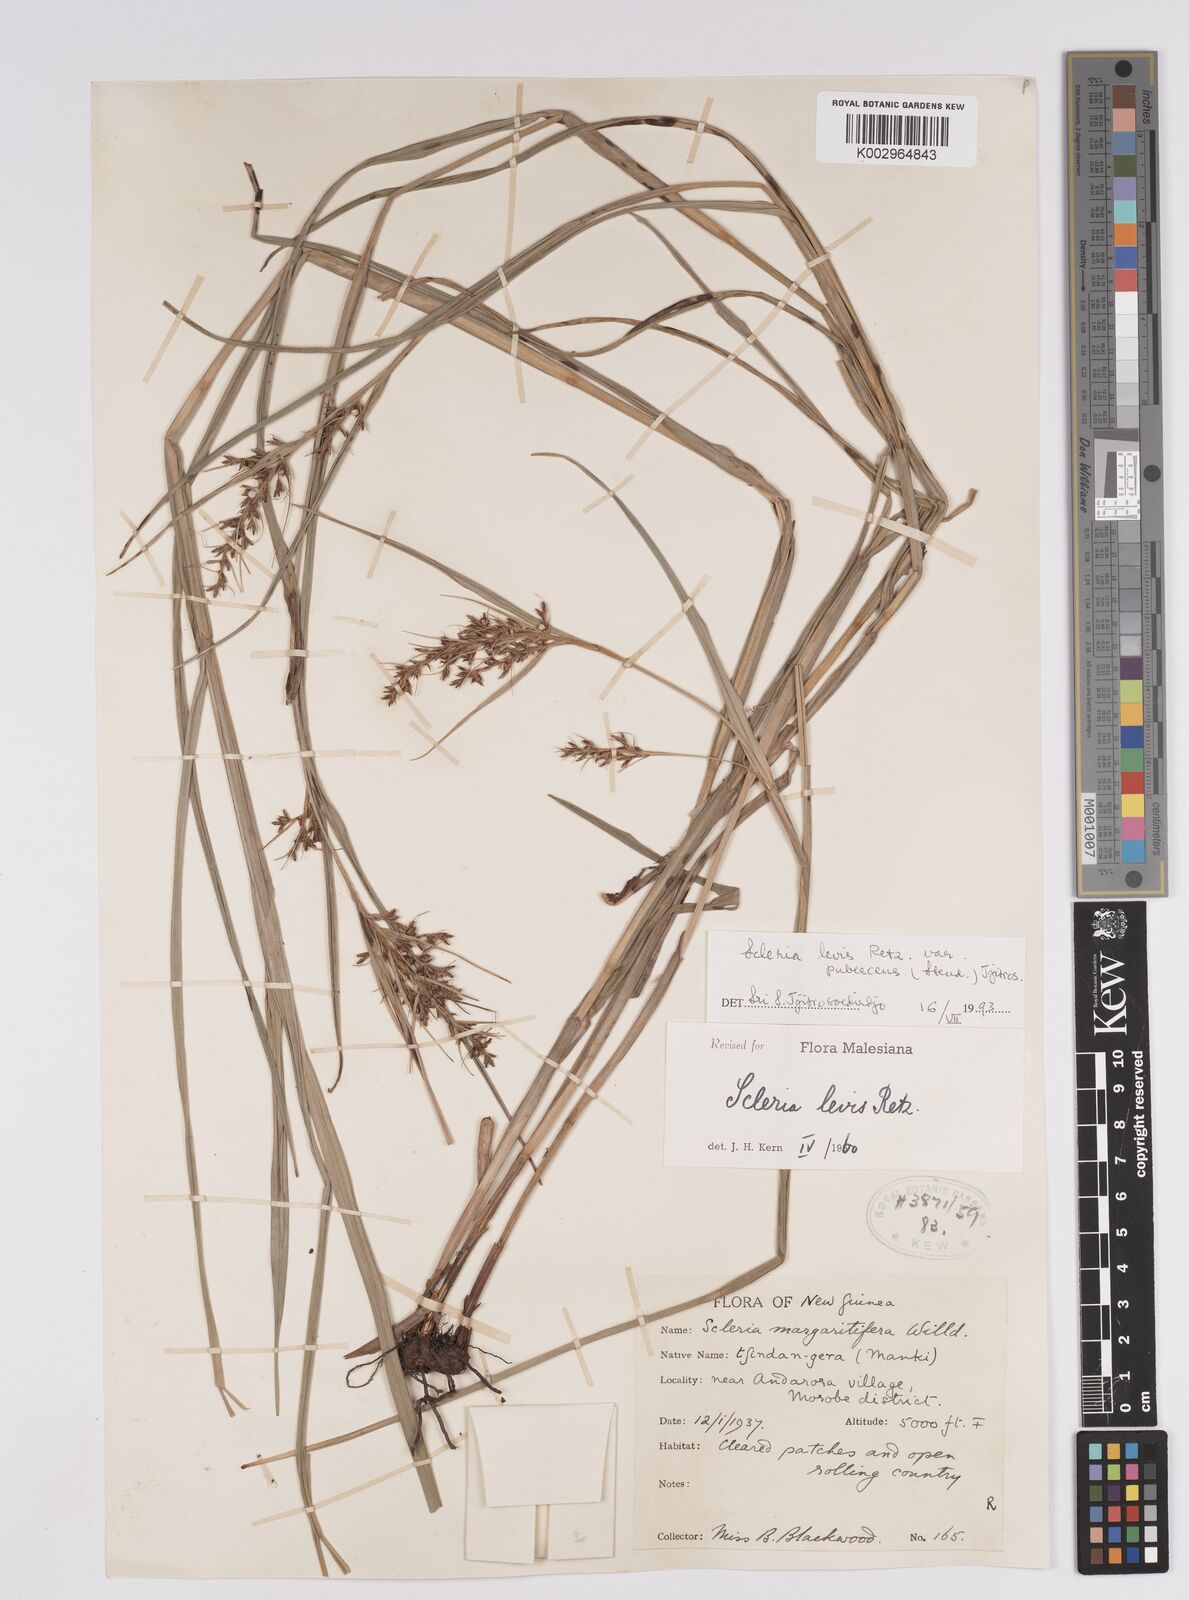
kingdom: Plantae
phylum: Tracheophyta
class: Liliopsida
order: Poales
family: Cyperaceae
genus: Scleria
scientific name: Scleria oblata
